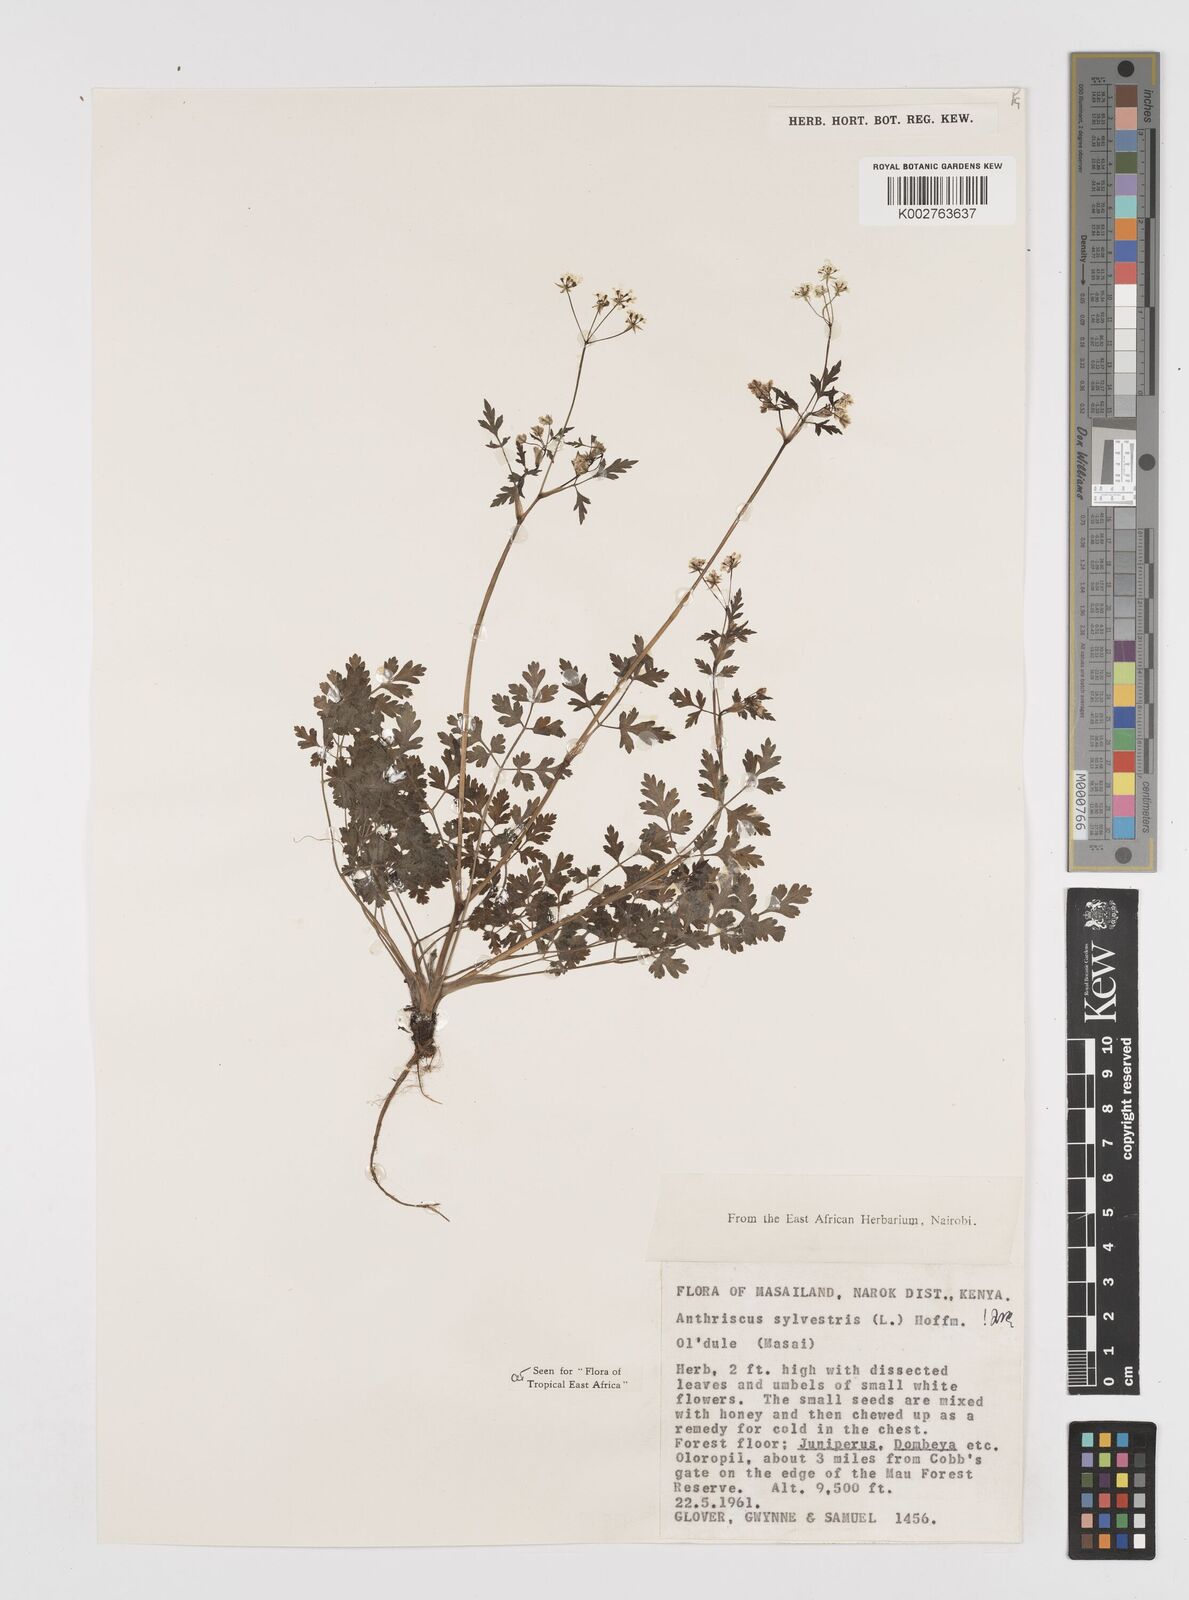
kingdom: Plantae
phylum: Tracheophyta
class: Magnoliopsida
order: Apiales
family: Apiaceae
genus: Anthriscus
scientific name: Anthriscus sylvestris
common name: Cow parsley
